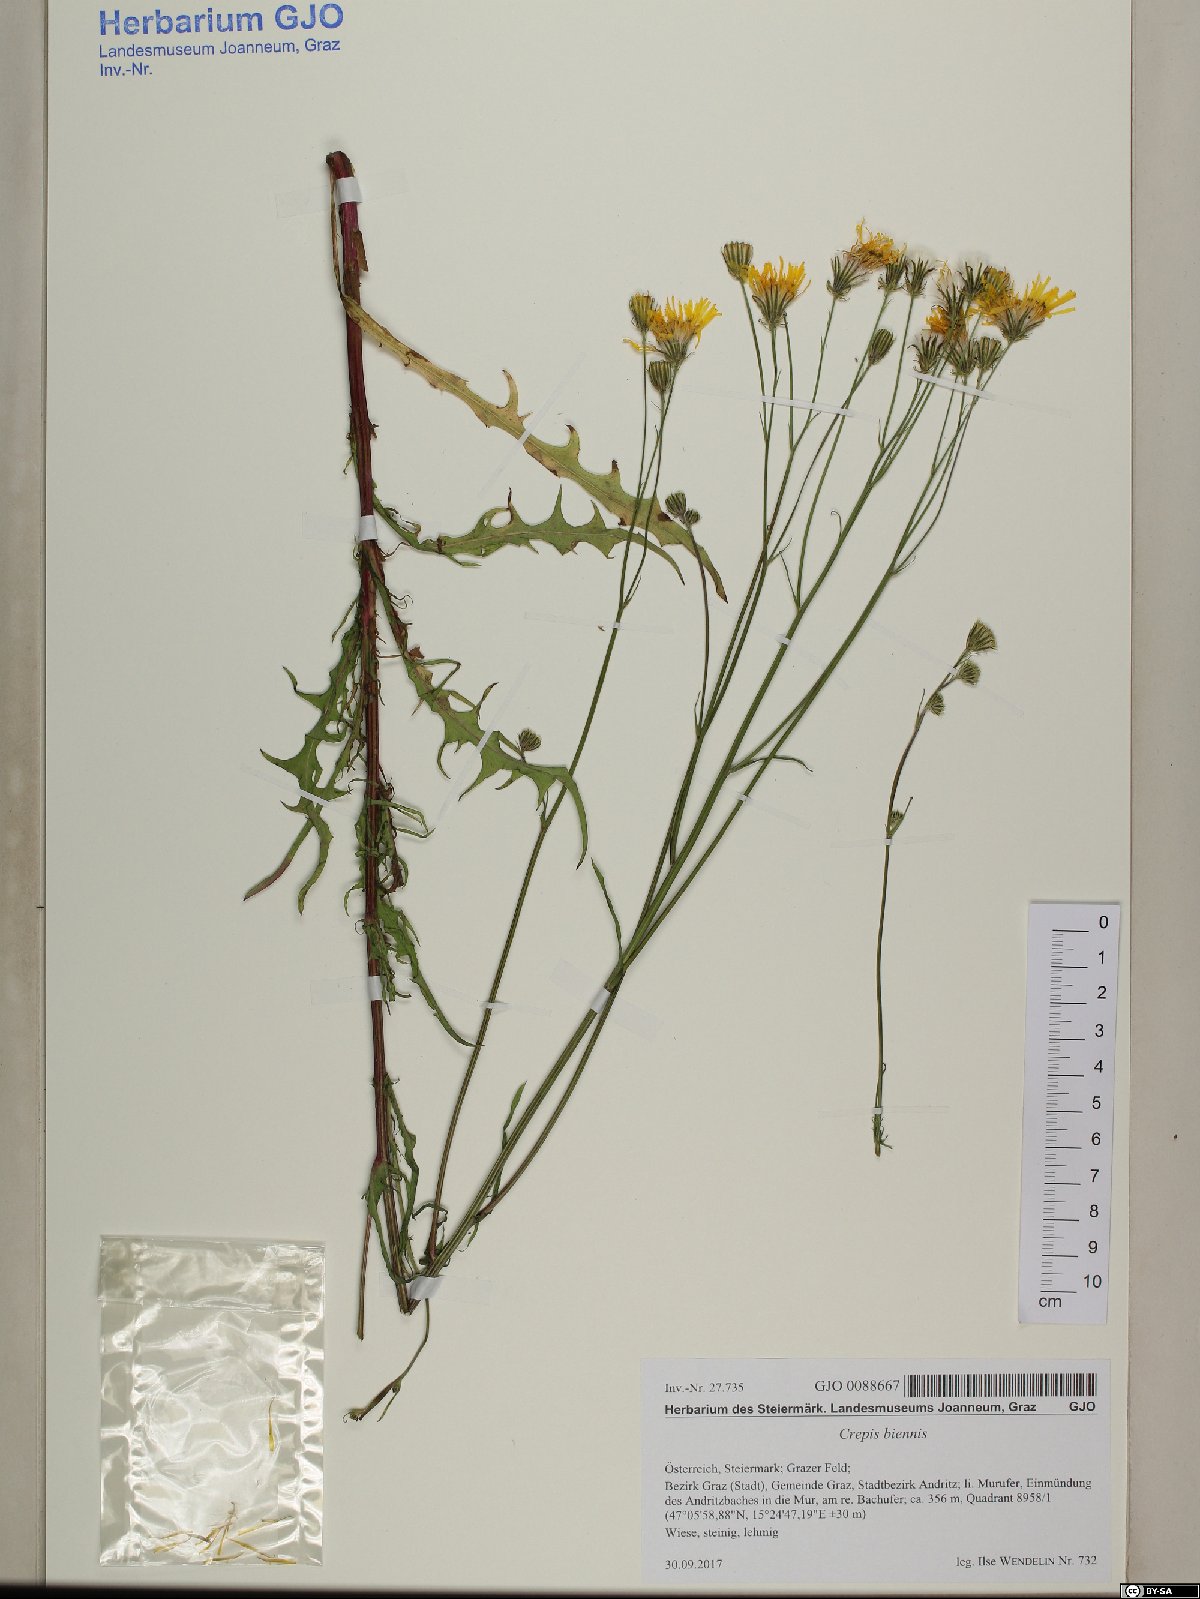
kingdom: Plantae
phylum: Tracheophyta
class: Magnoliopsida
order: Asterales
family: Asteraceae
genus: Crepis
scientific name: Crepis biennis
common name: Rough hawk's-beard
